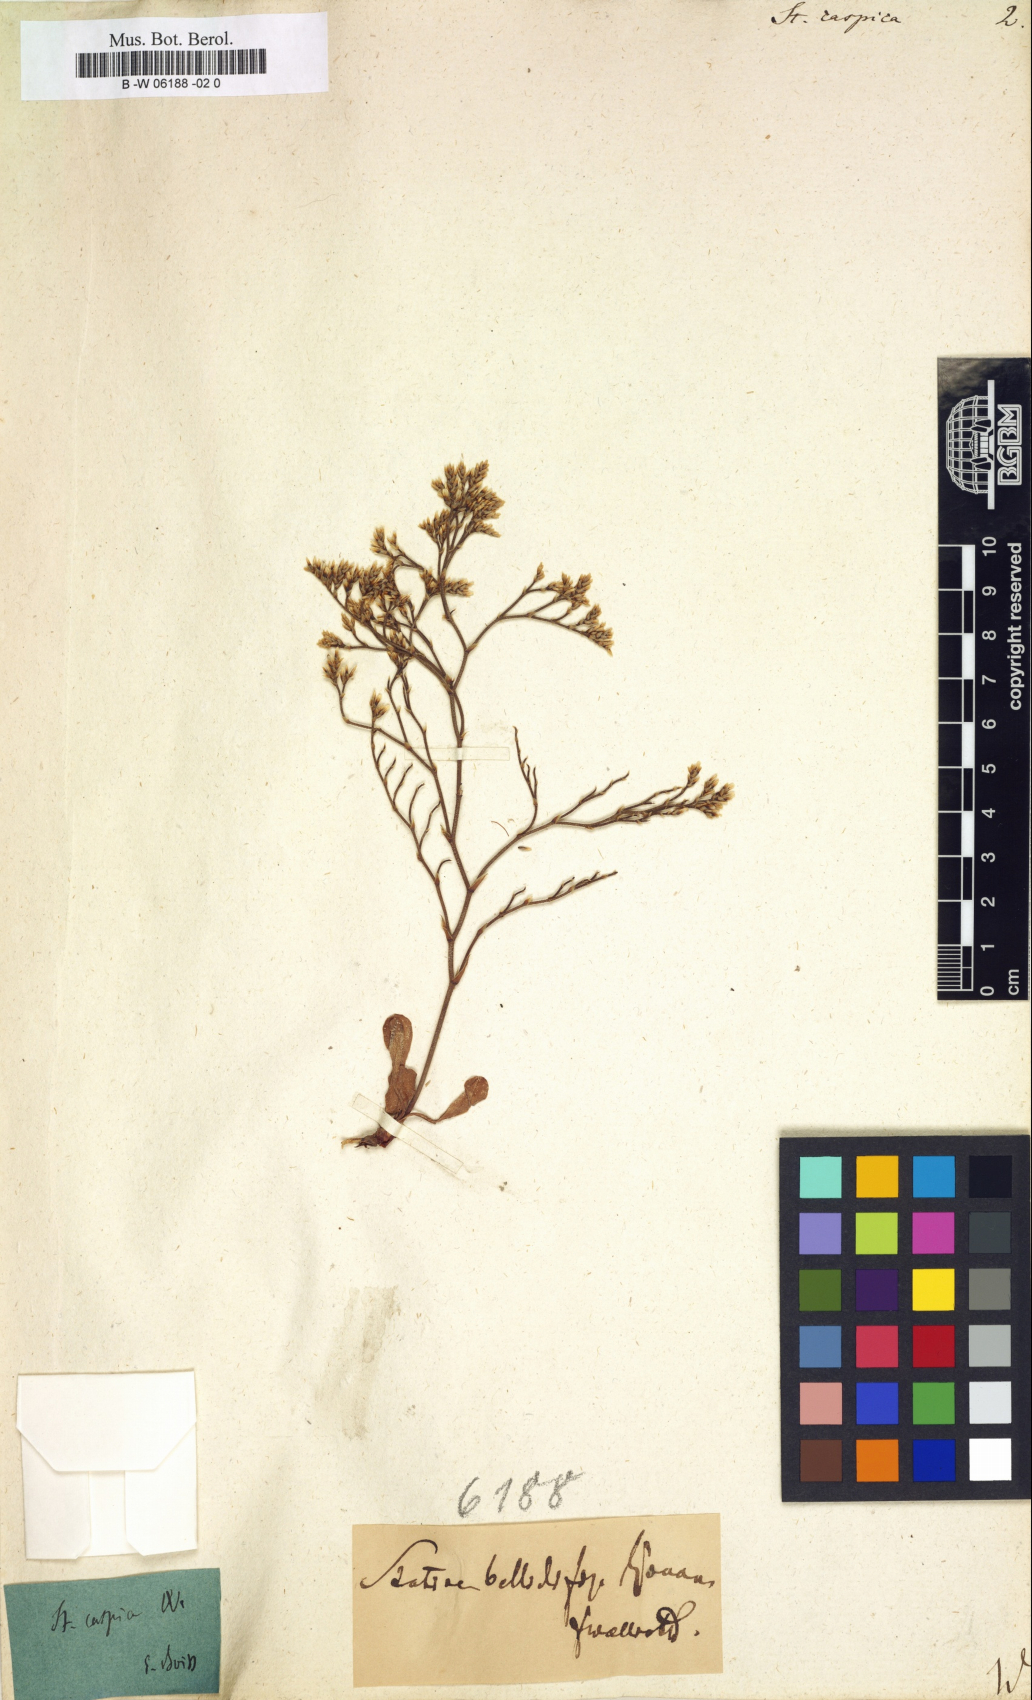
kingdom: Plantae
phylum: Tracheophyta
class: Magnoliopsida
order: Caryophyllales
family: Plumbaginaceae
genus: Limonium
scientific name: Limonium bellidifolium
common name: Matted sea-lavender
